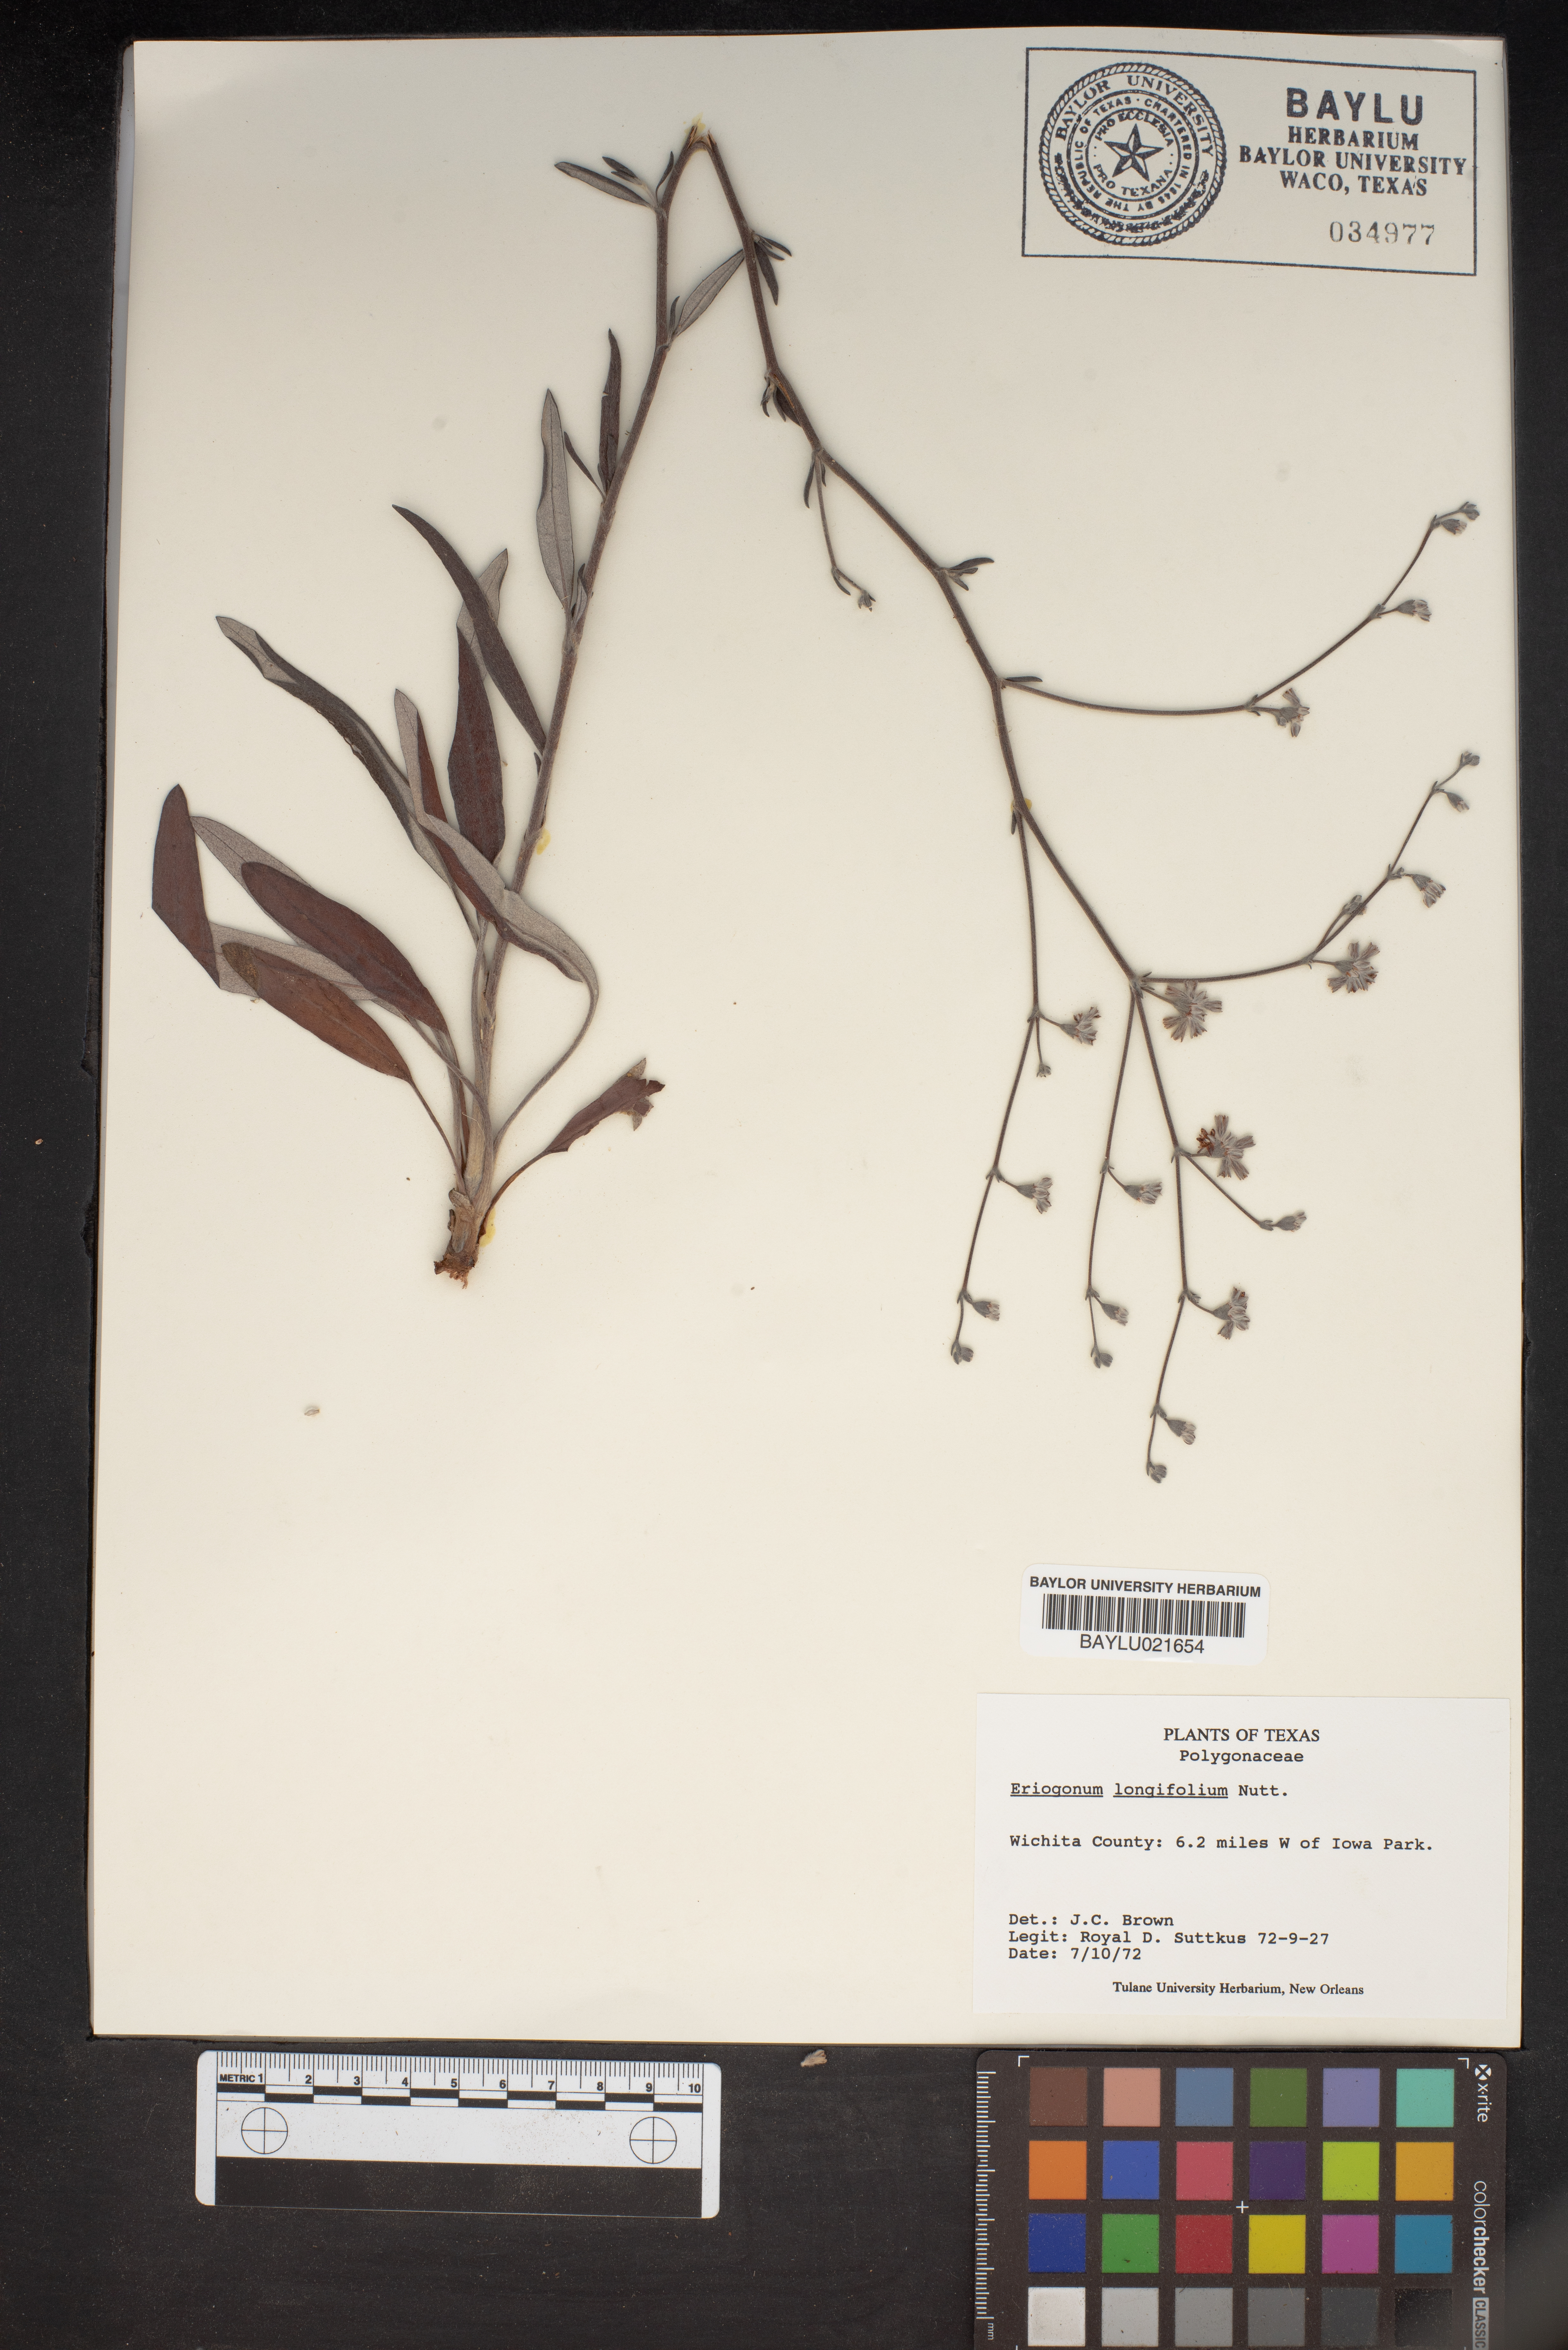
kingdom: Plantae
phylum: Tracheophyta
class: Magnoliopsida
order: Caryophyllales
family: Polygonaceae
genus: Eriogonum
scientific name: Eriogonum longifolium
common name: Longleaf wild buckwheat
